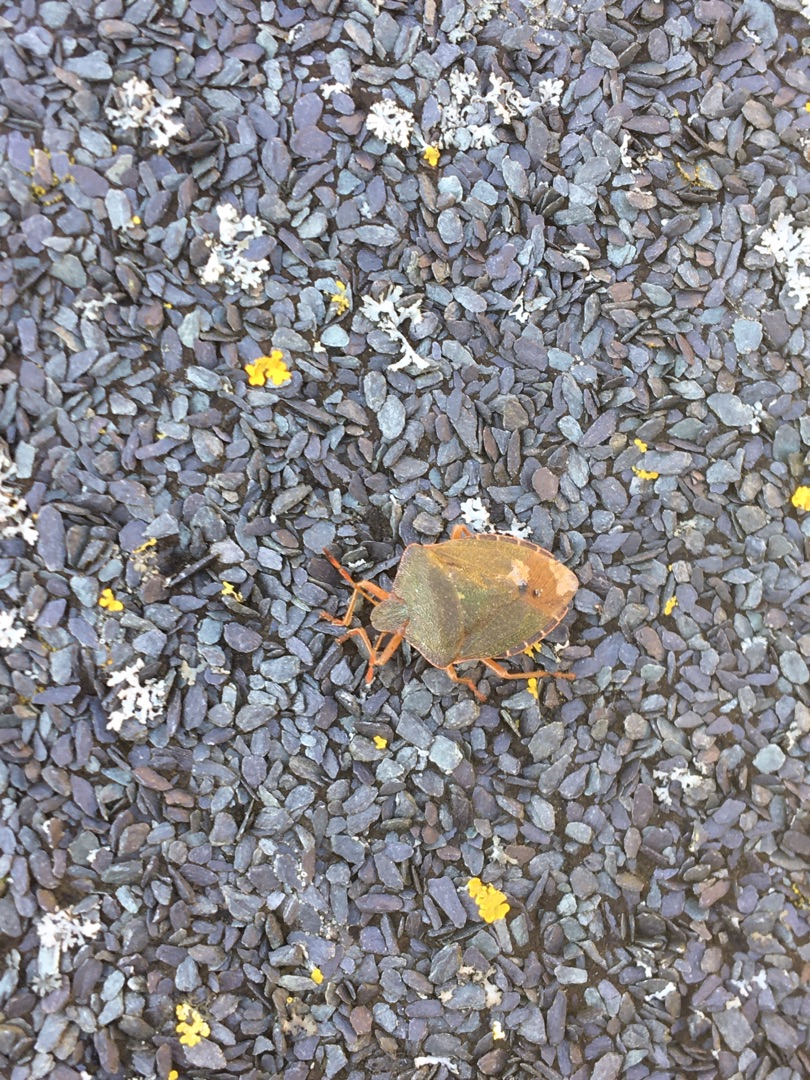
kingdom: Animalia
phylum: Arthropoda
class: Insecta
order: Hemiptera
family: Pentatomidae
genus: Palomena
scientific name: Palomena prasina
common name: Grøn bredtæge
